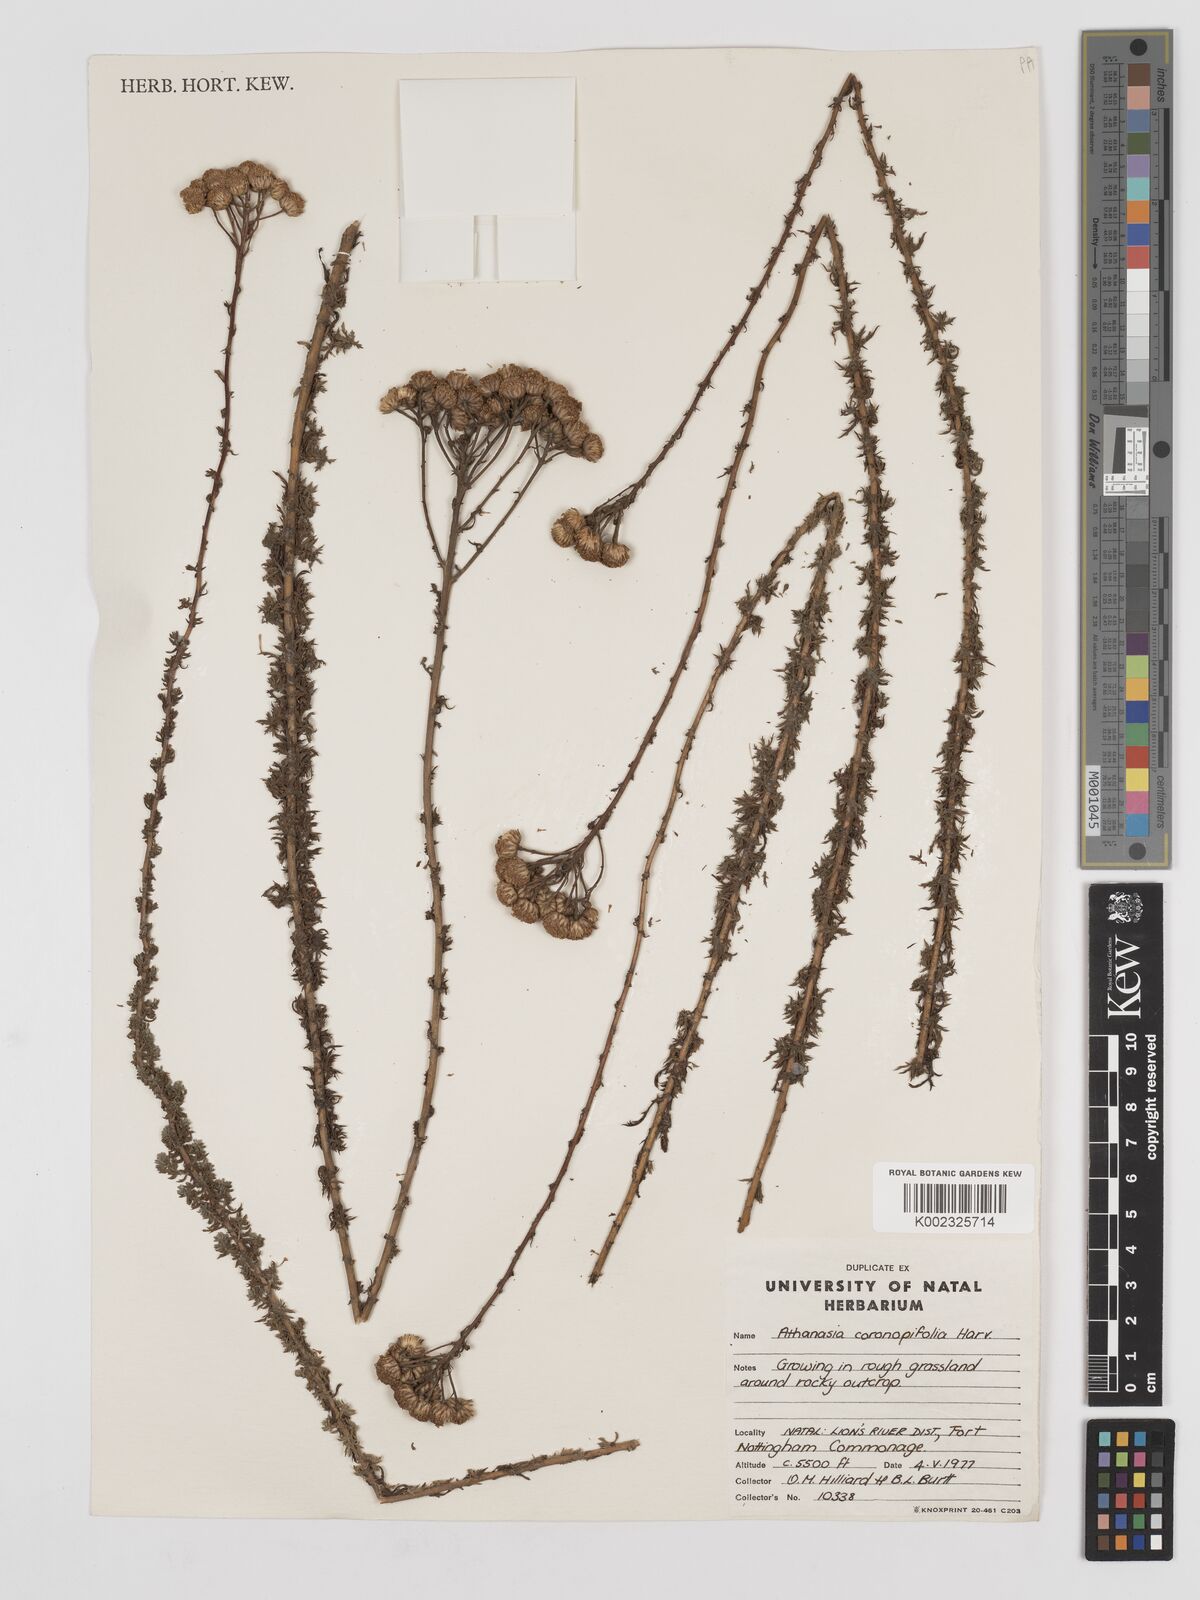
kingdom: Plantae
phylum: Tracheophyta
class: Magnoliopsida
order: Asterales
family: Asteraceae
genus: Inulanthera
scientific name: Inulanthera coronopifolia
